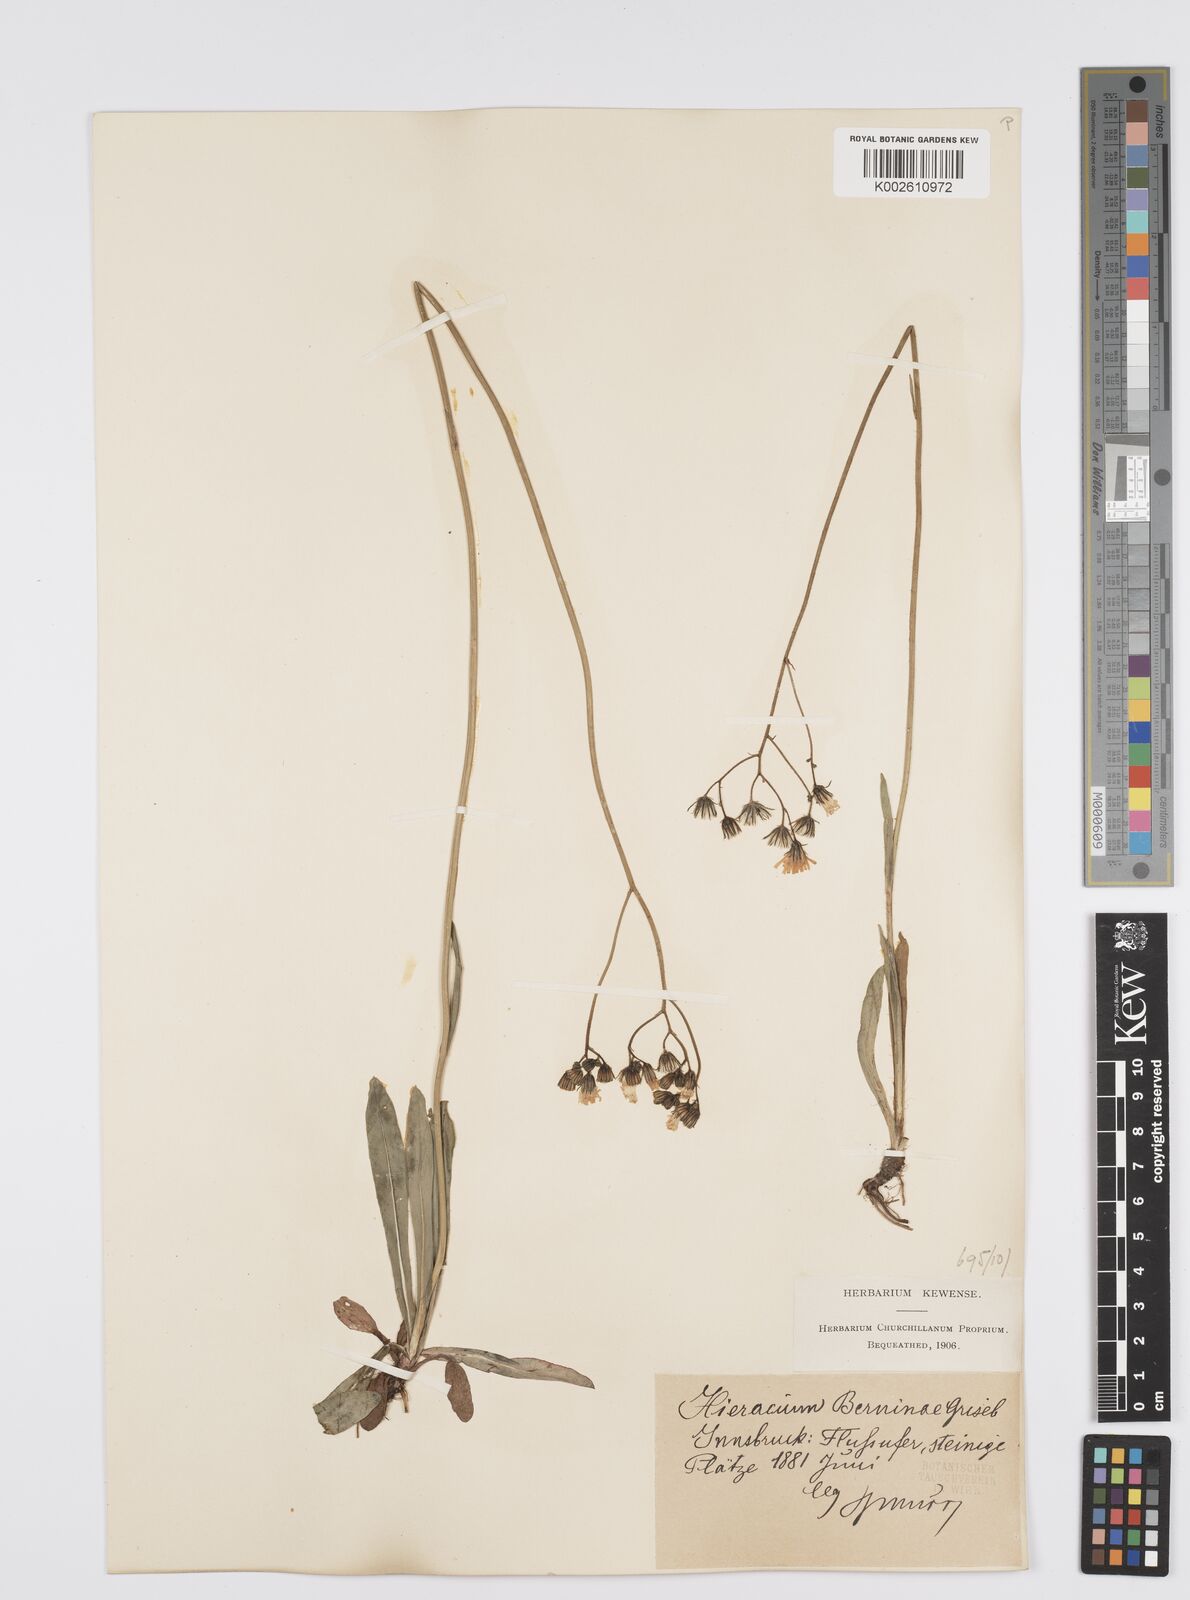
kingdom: Plantae
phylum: Tracheophyta
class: Magnoliopsida
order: Asterales
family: Asteraceae
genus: Pilosella
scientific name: Pilosella piloselloides
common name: Glaucous king-devil
